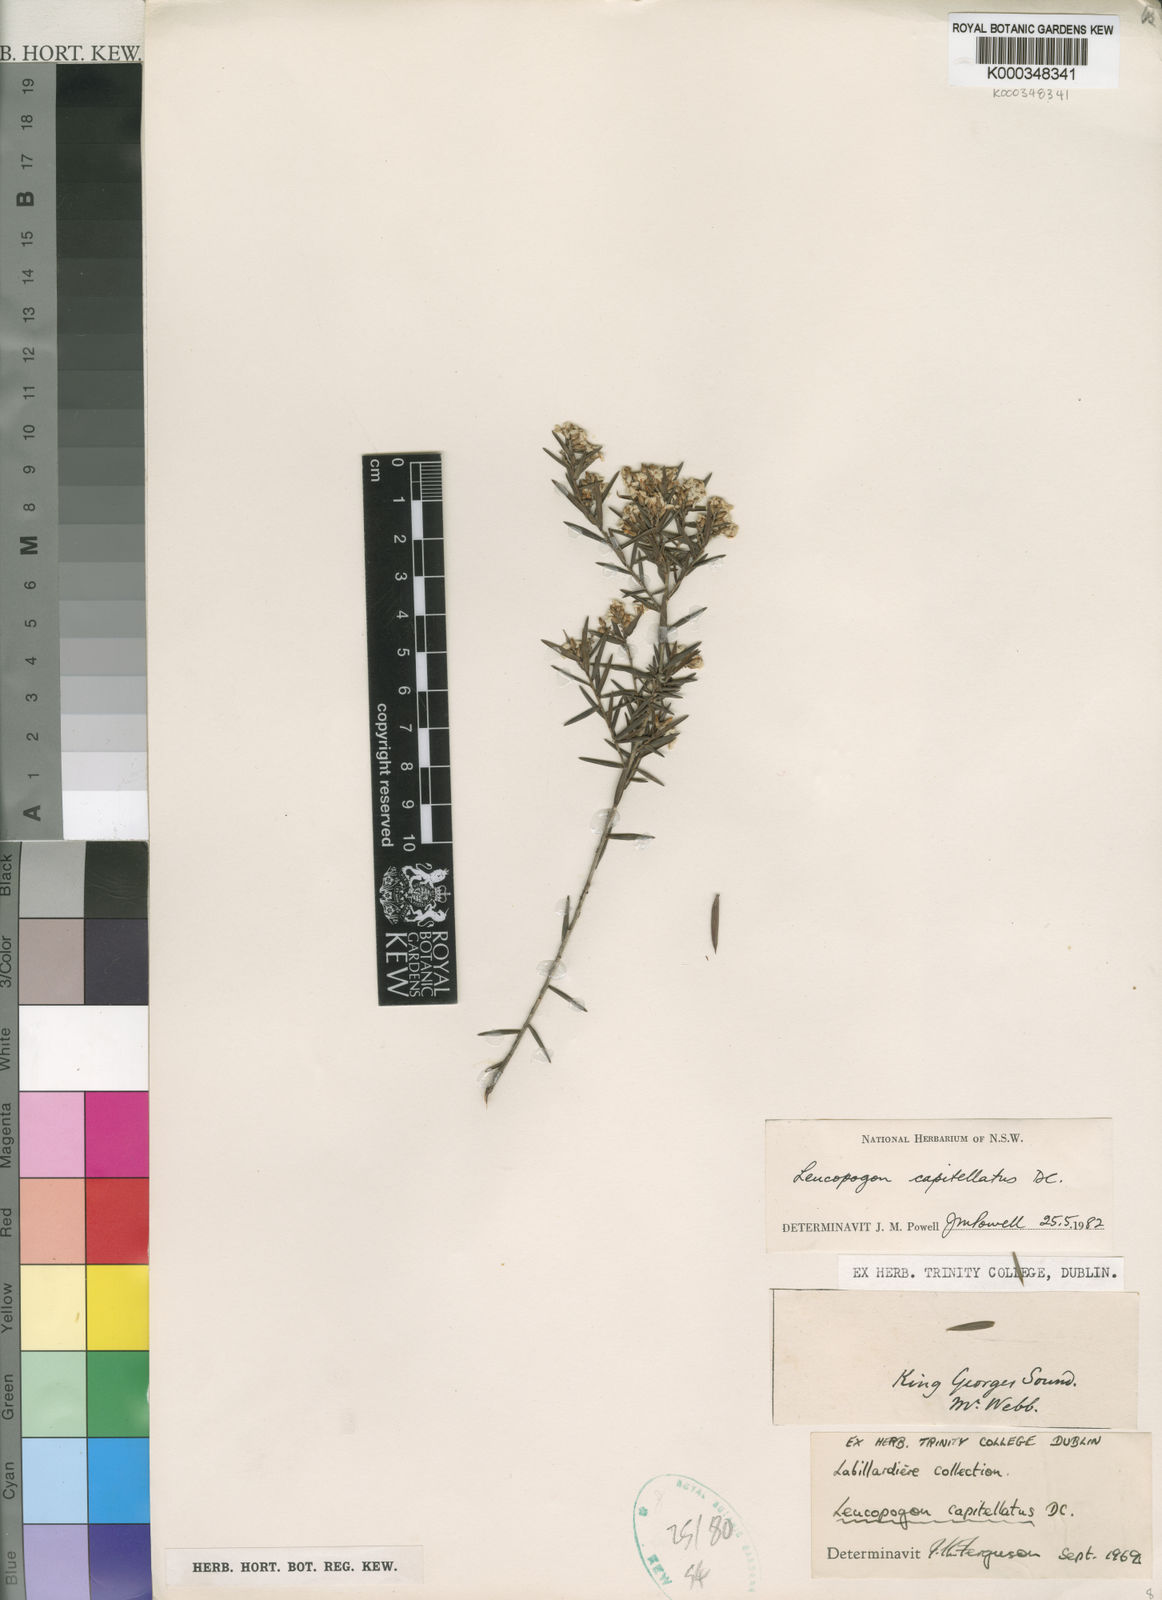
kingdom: Plantae
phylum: Tracheophyta
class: Magnoliopsida
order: Ericales
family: Ericaceae
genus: Leucopogon
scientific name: Leucopogon capitellatus
